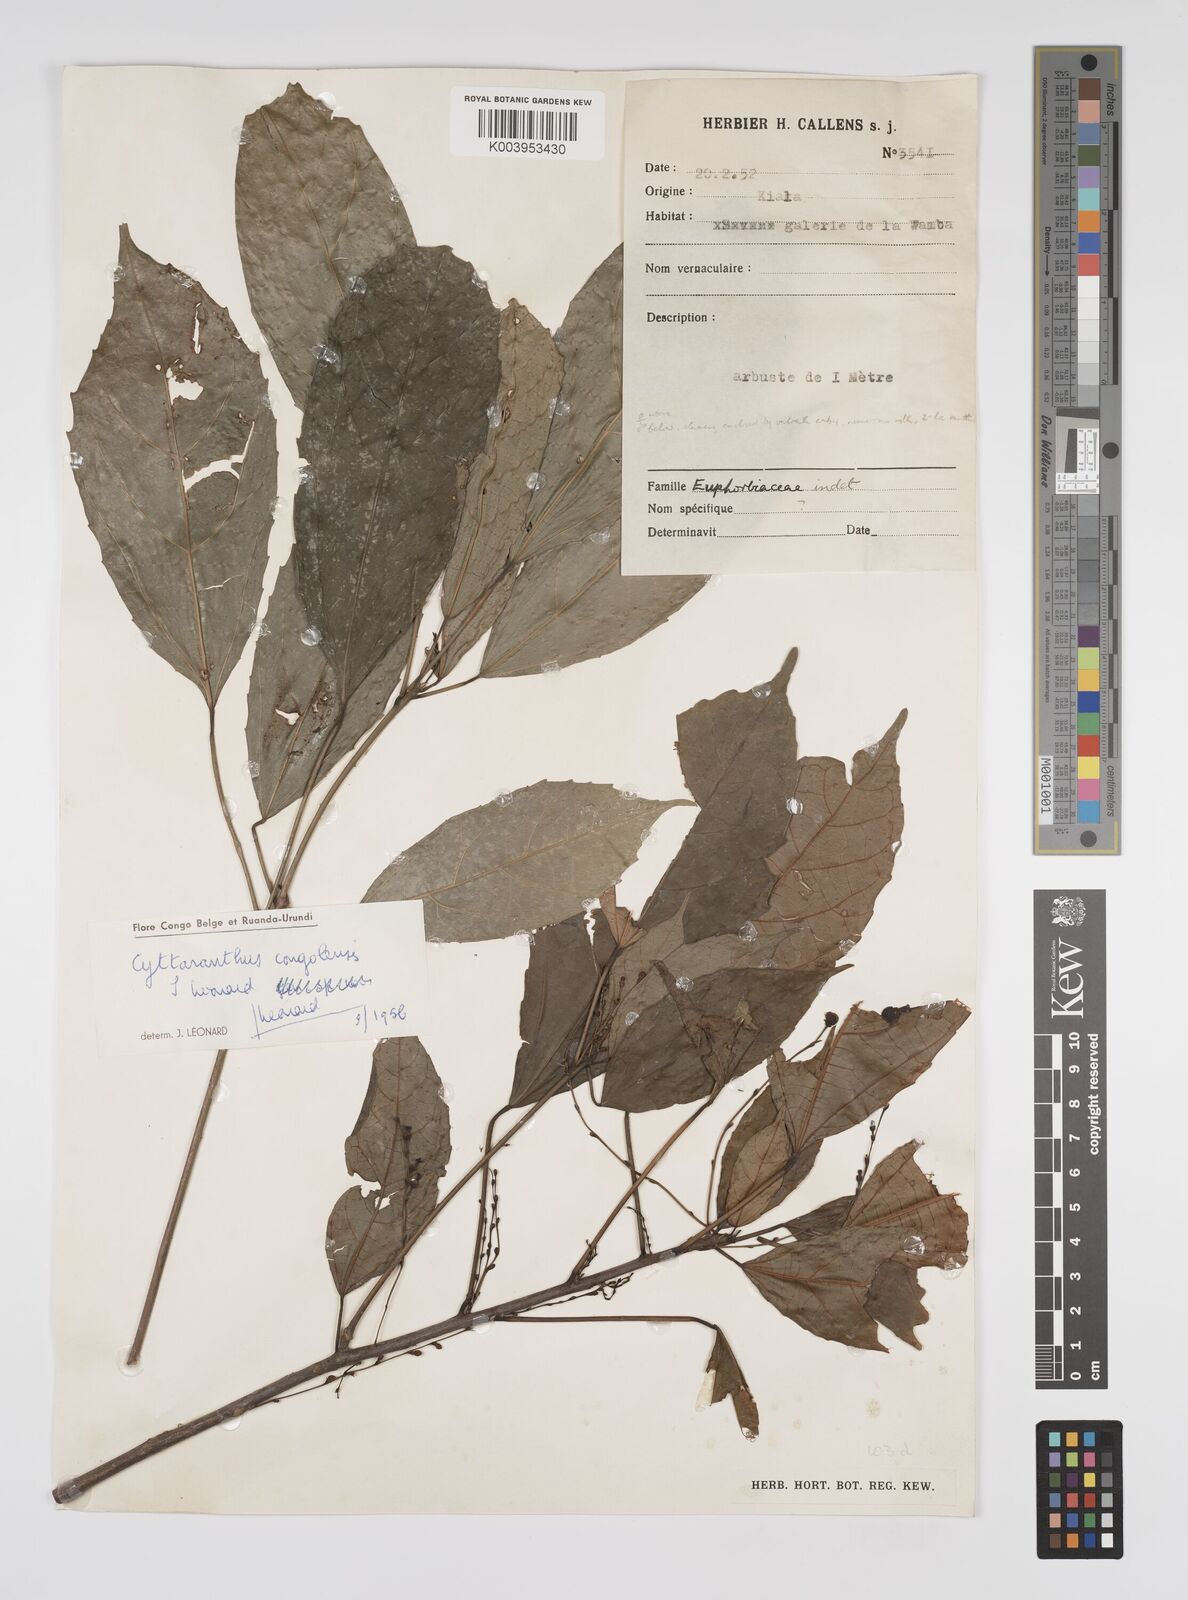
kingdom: Plantae
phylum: Tracheophyta
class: Magnoliopsida
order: Malpighiales
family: Euphorbiaceae
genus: Cyttaranthus
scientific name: Cyttaranthus congolensis
